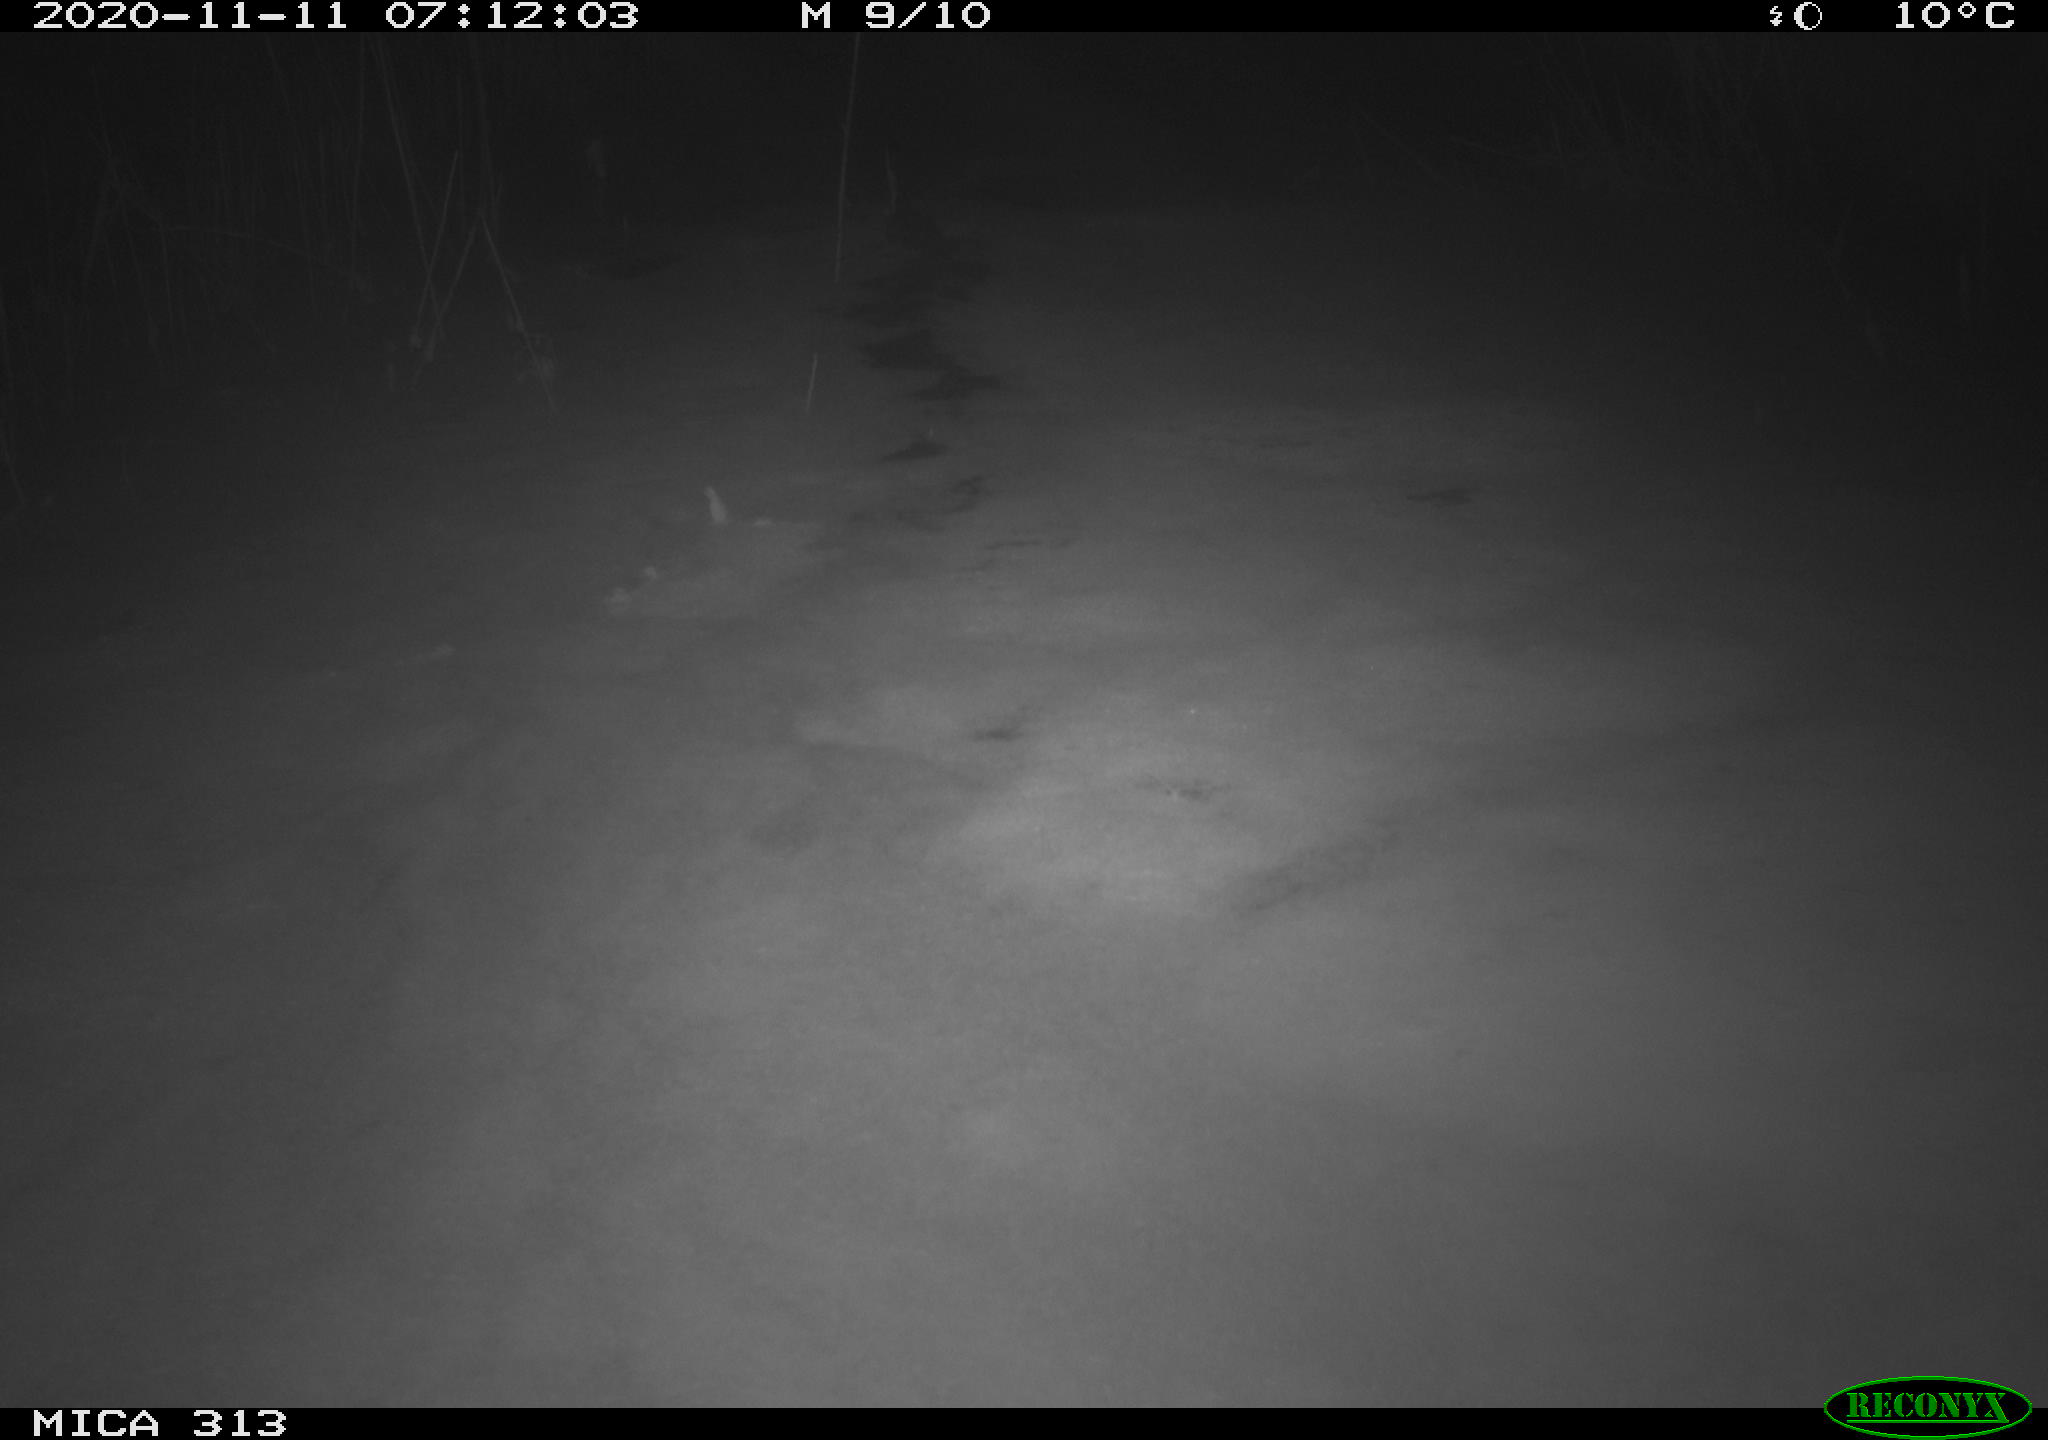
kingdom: Animalia
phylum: Chordata
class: Aves
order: Gruiformes
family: Rallidae
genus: Gallinula
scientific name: Gallinula chloropus
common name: Common moorhen
